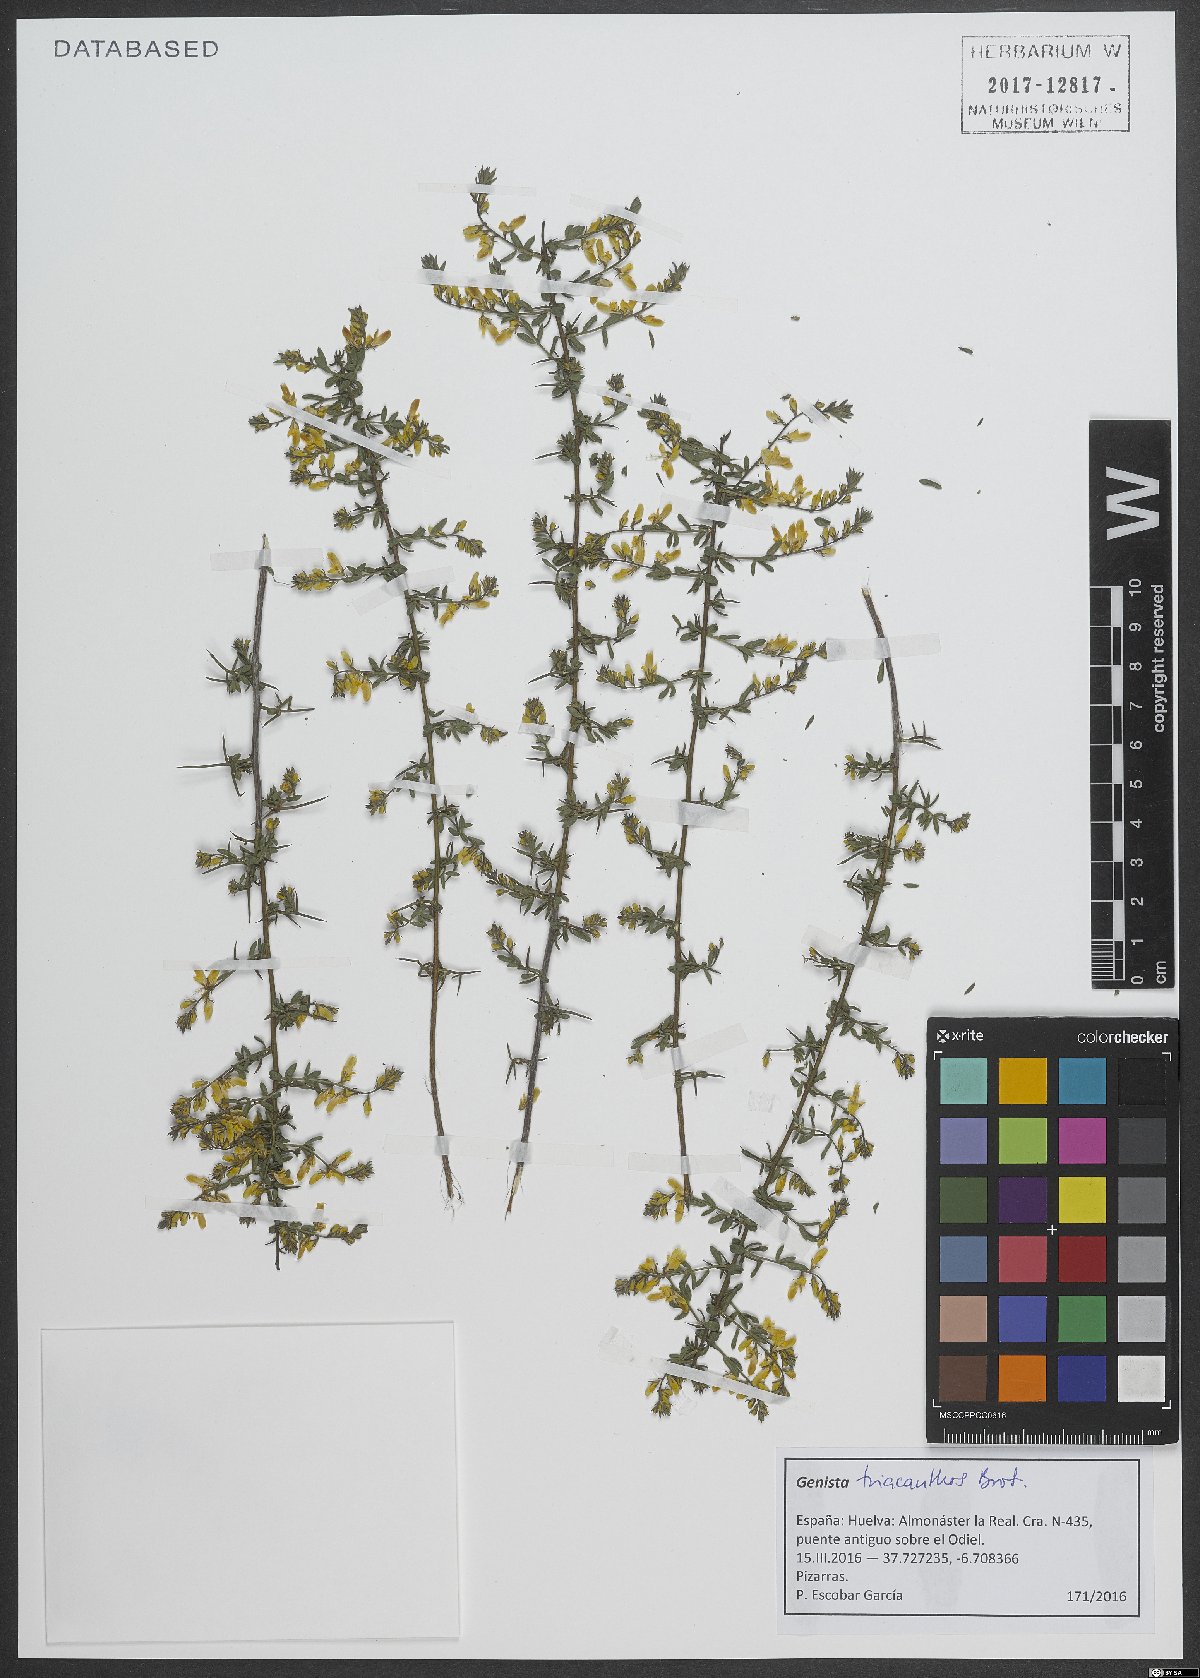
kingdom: Plantae
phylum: Tracheophyta
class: Magnoliopsida
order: Fabales
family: Fabaceae
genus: Genista
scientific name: Genista triacanthos
